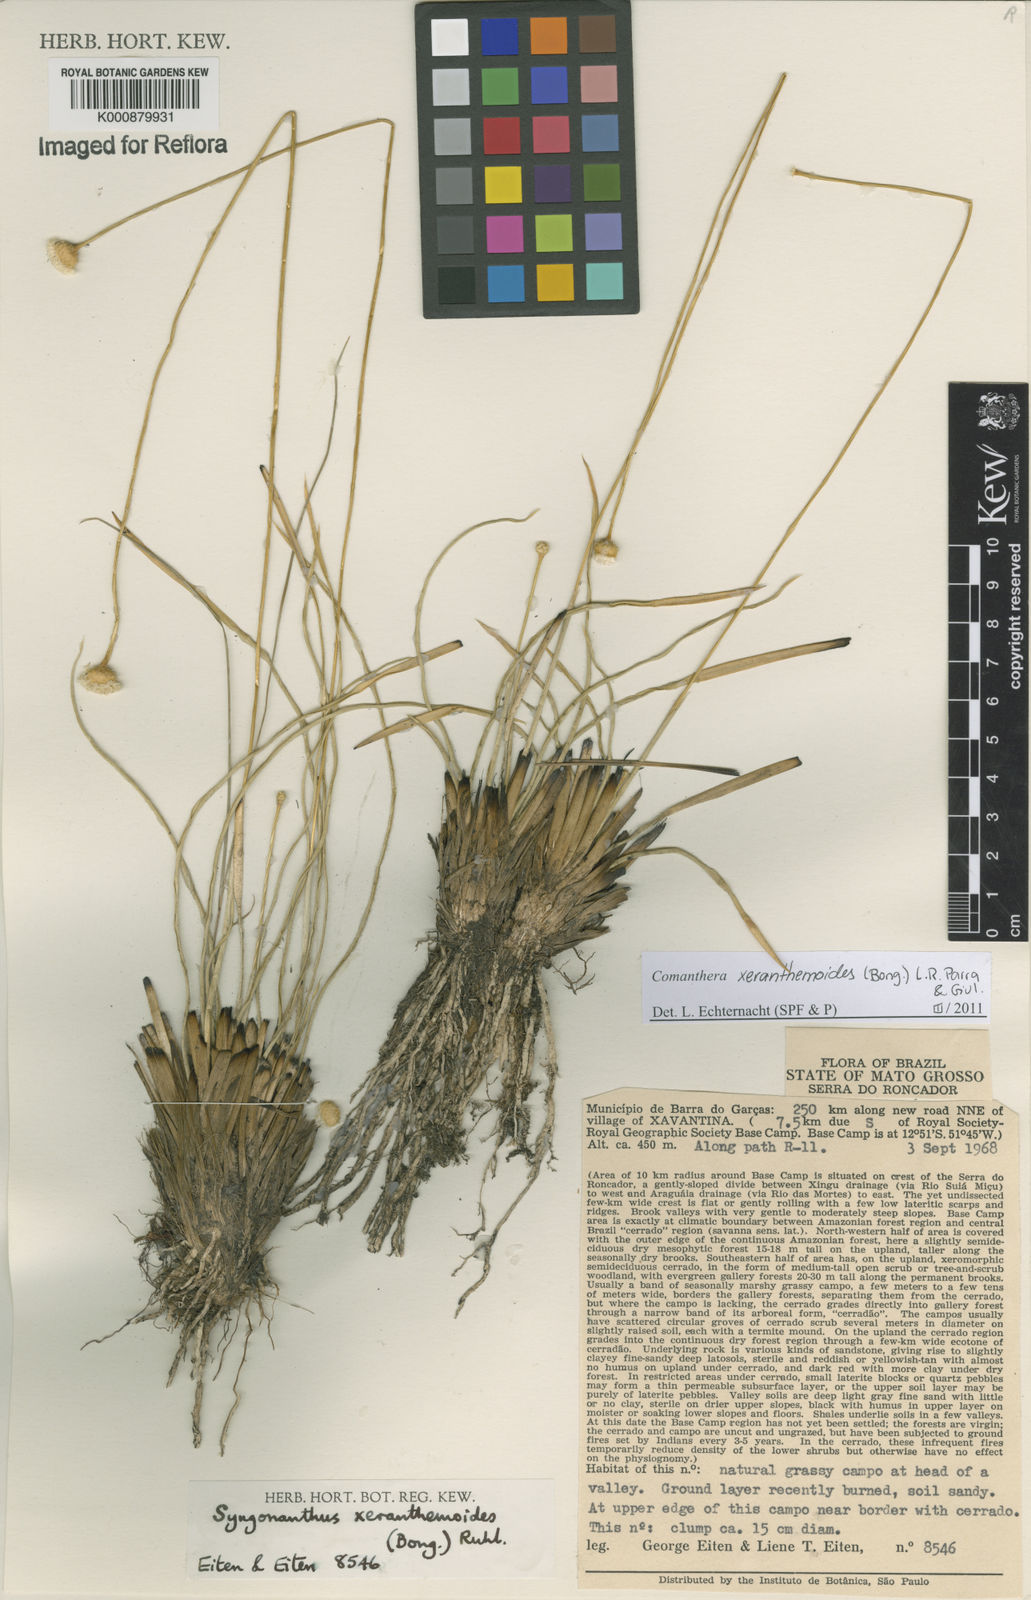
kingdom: Plantae
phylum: Tracheophyta
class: Liliopsida
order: Poales
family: Eriocaulaceae
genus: Comanthera
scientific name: Comanthera xeranthemoides
